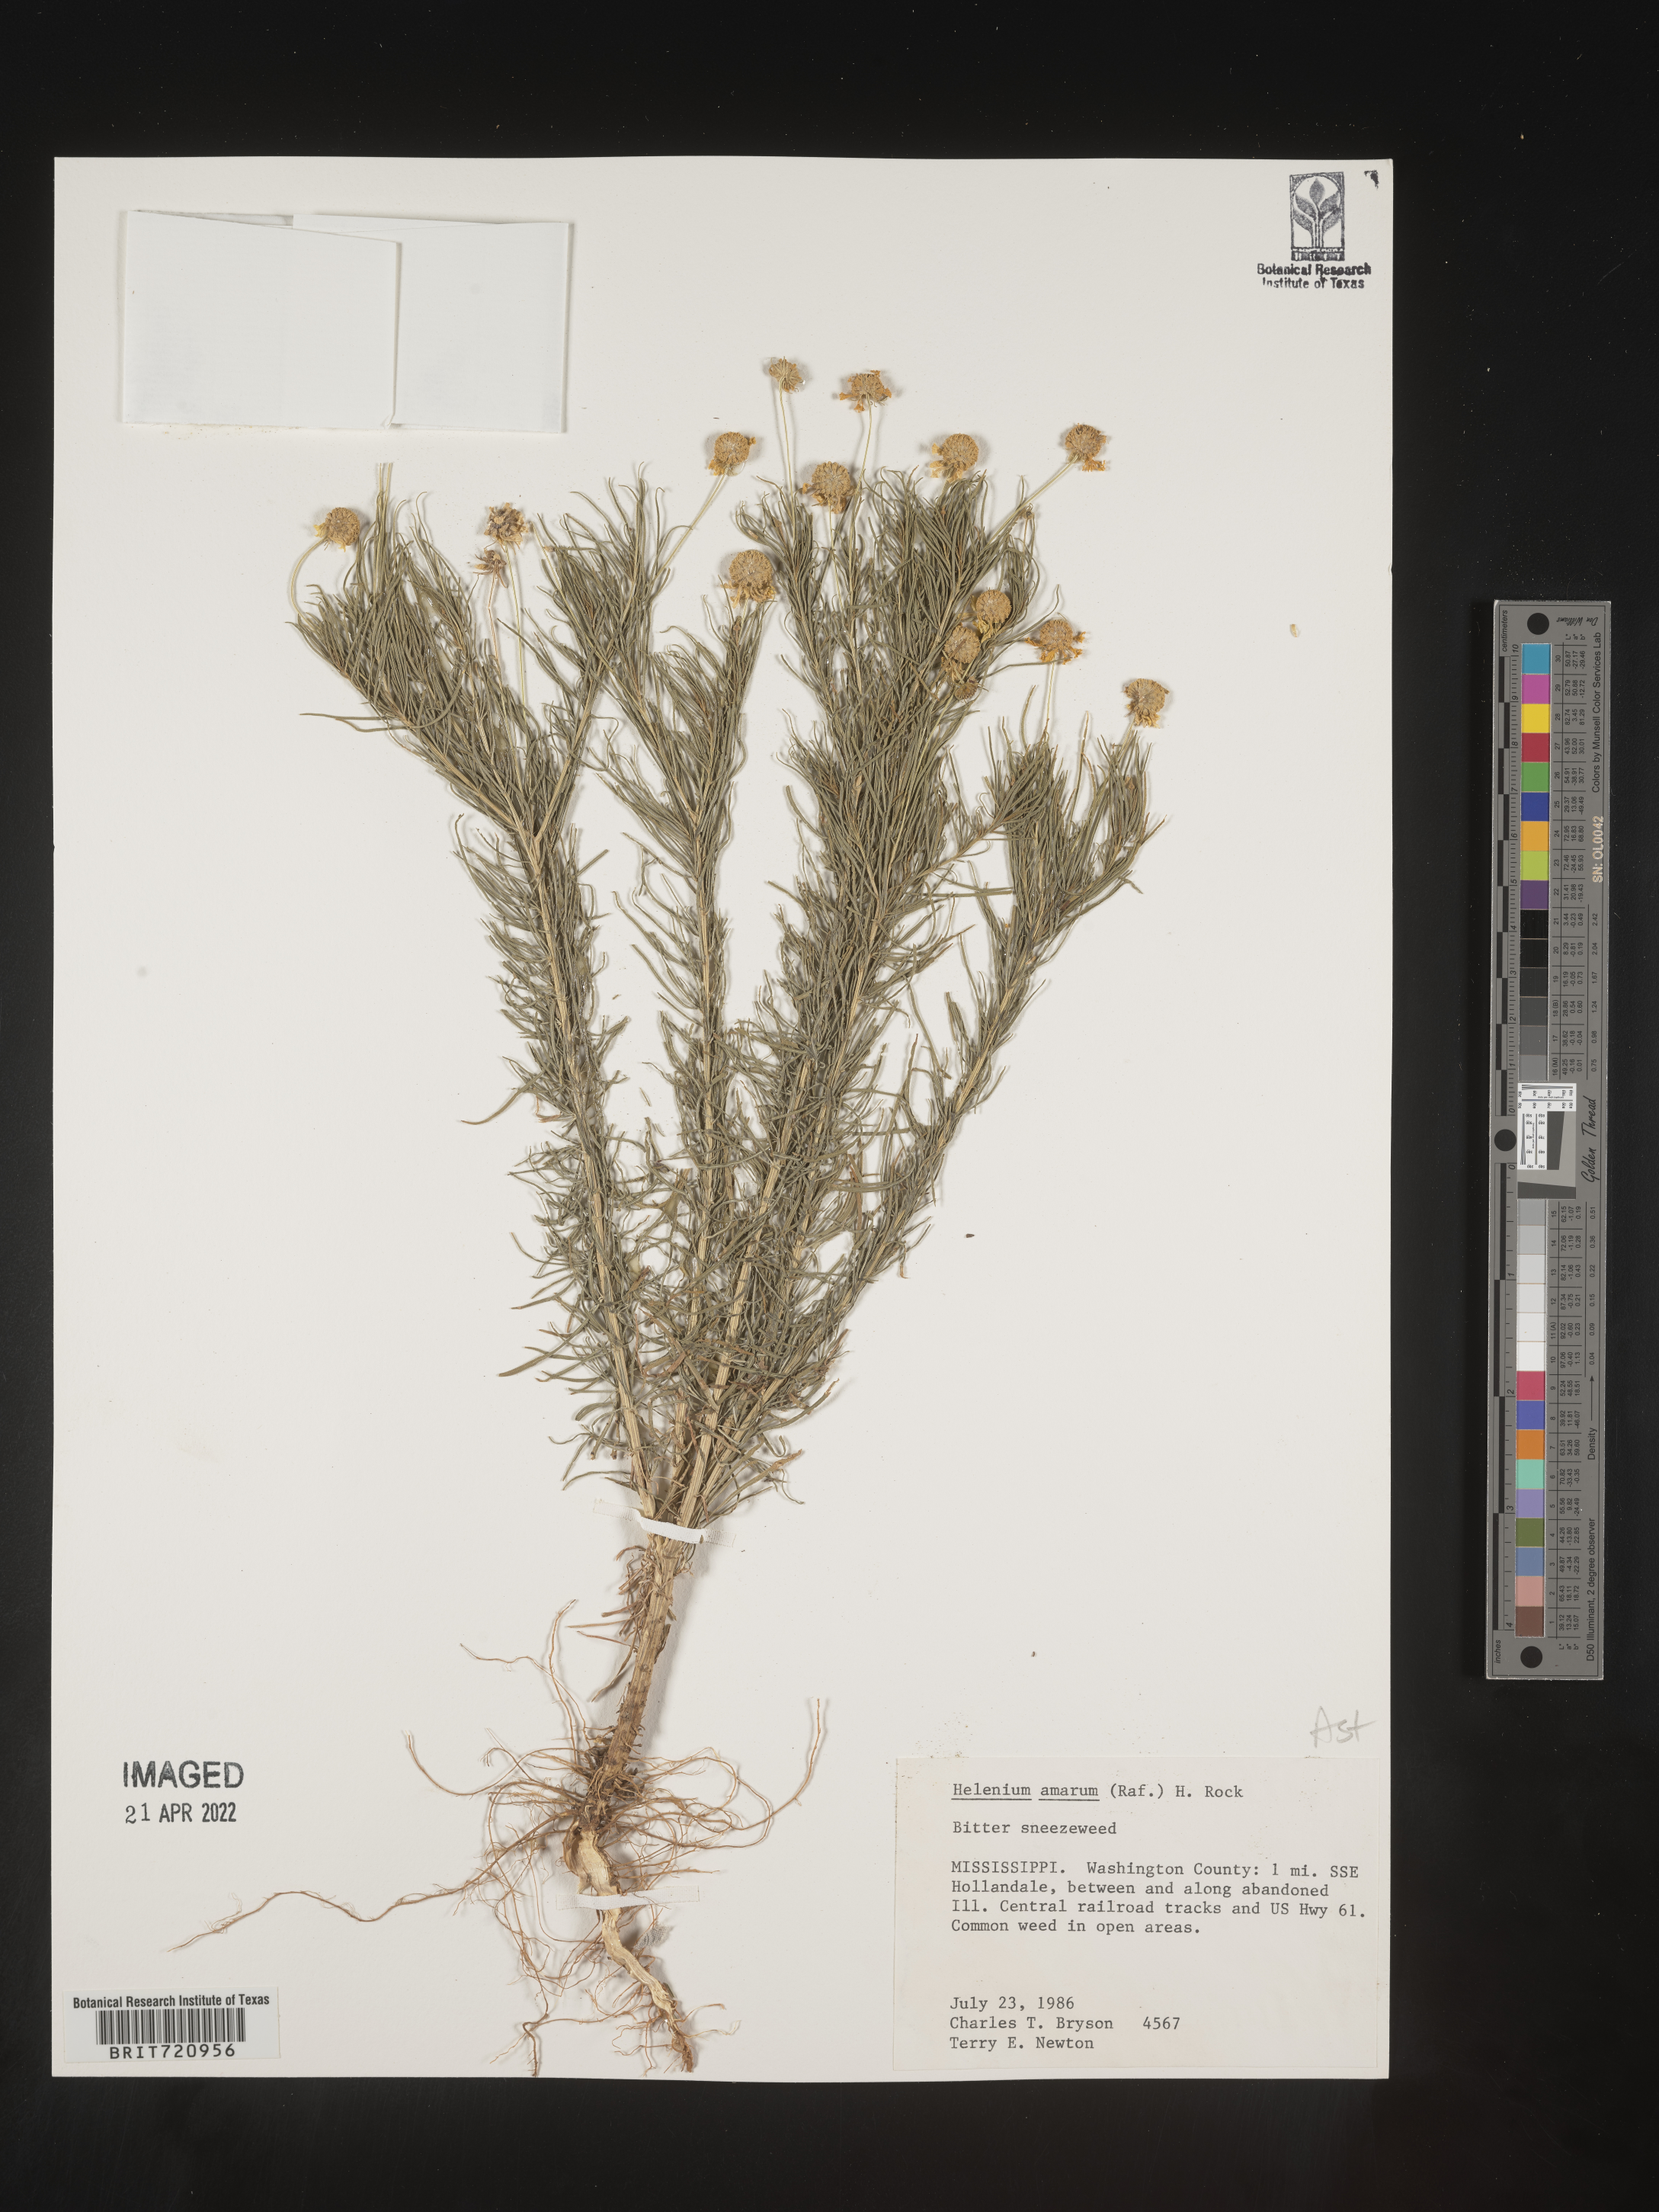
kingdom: Plantae
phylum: Tracheophyta
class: Magnoliopsida
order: Asterales
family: Asteraceae
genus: Helenium
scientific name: Helenium amarum
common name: Bitter sneezeweed
